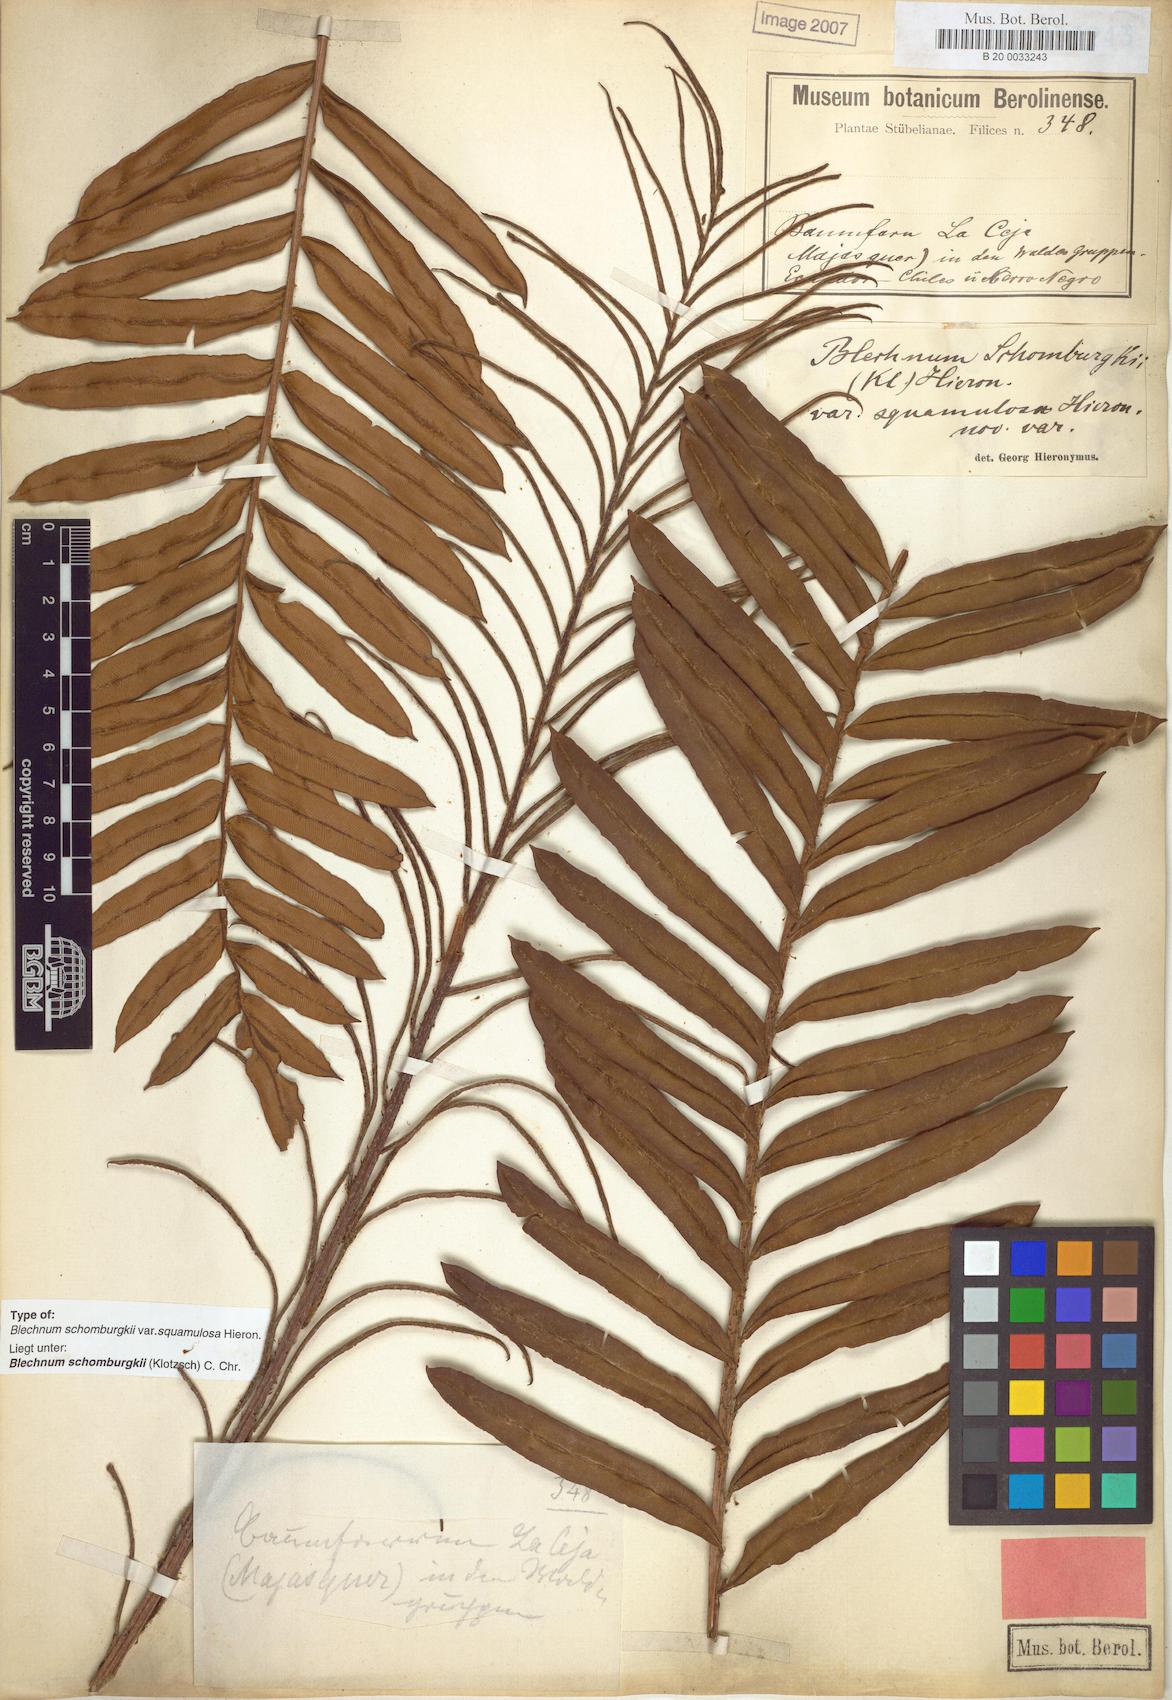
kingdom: Plantae
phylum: Tracheophyta
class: Polypodiopsida
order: Polypodiales
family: Blechnaceae
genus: Lomariocycas
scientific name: Lomariocycas schomburgkii
